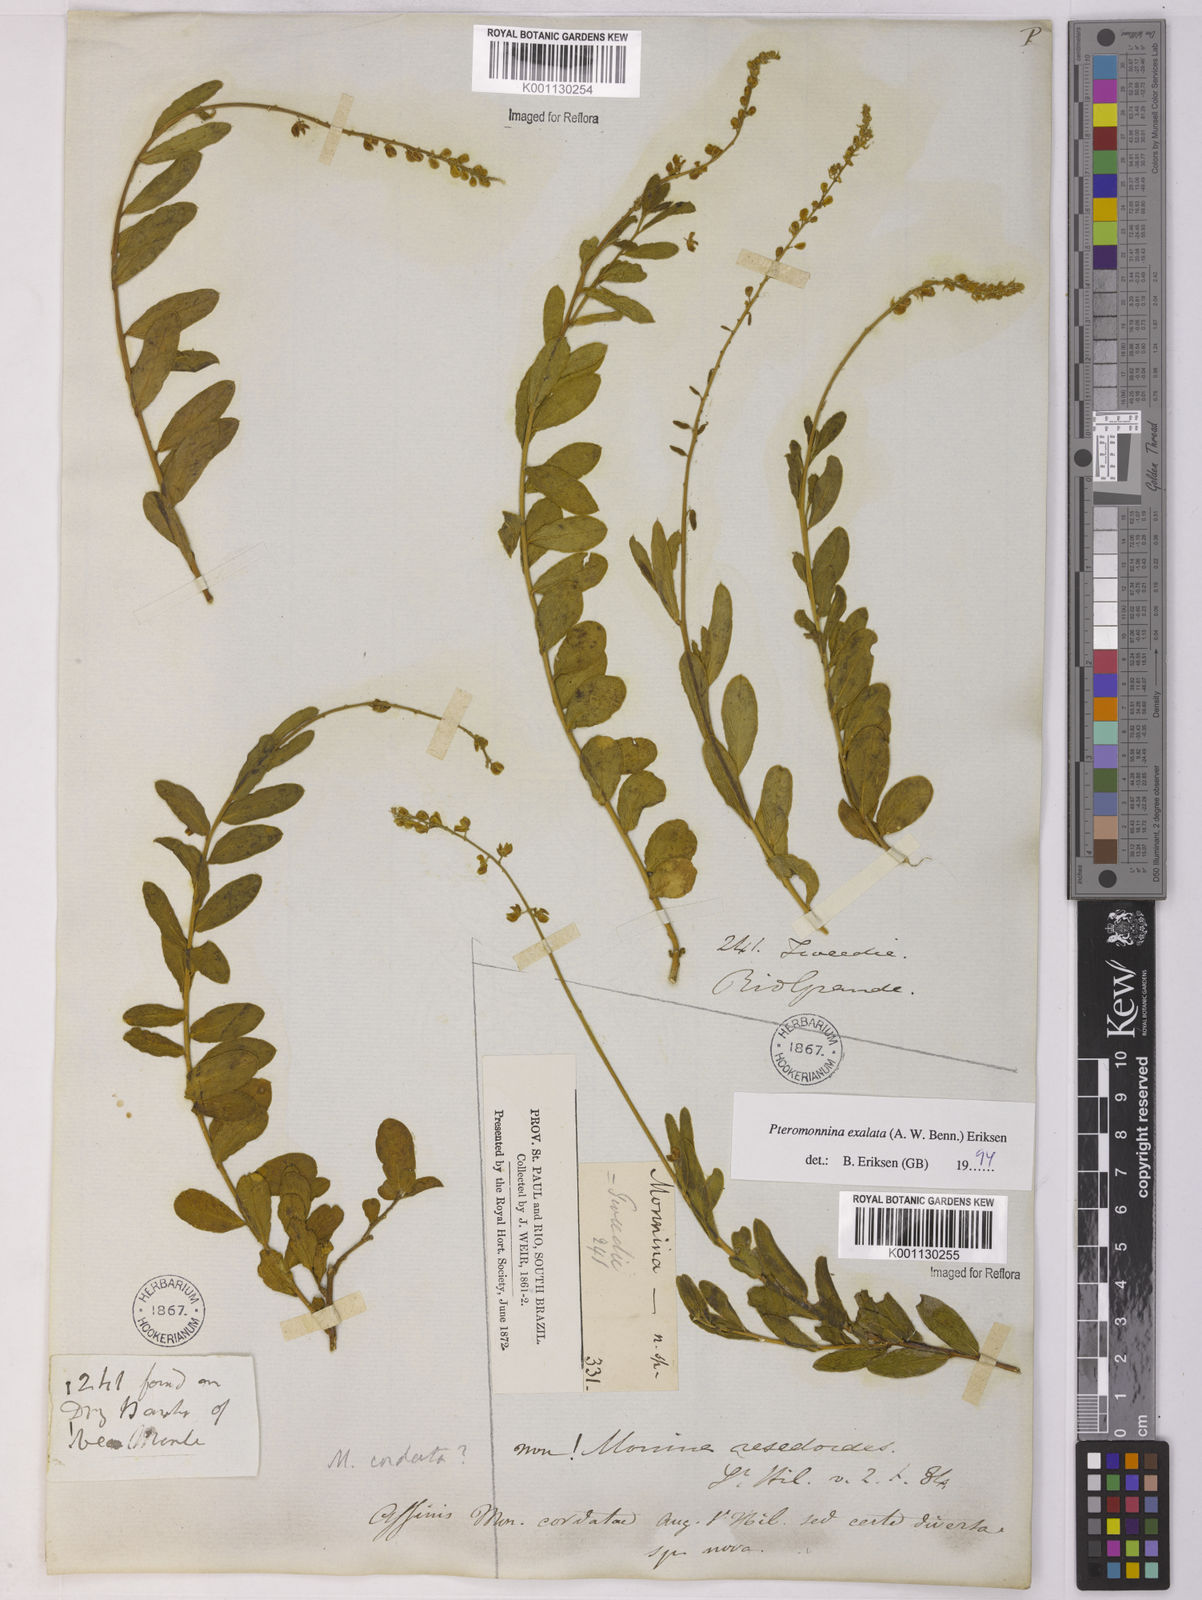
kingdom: Plantae
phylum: Tracheophyta
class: Magnoliopsida
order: Fabales
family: Polygalaceae
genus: Monnina
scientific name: Monnina exalata
